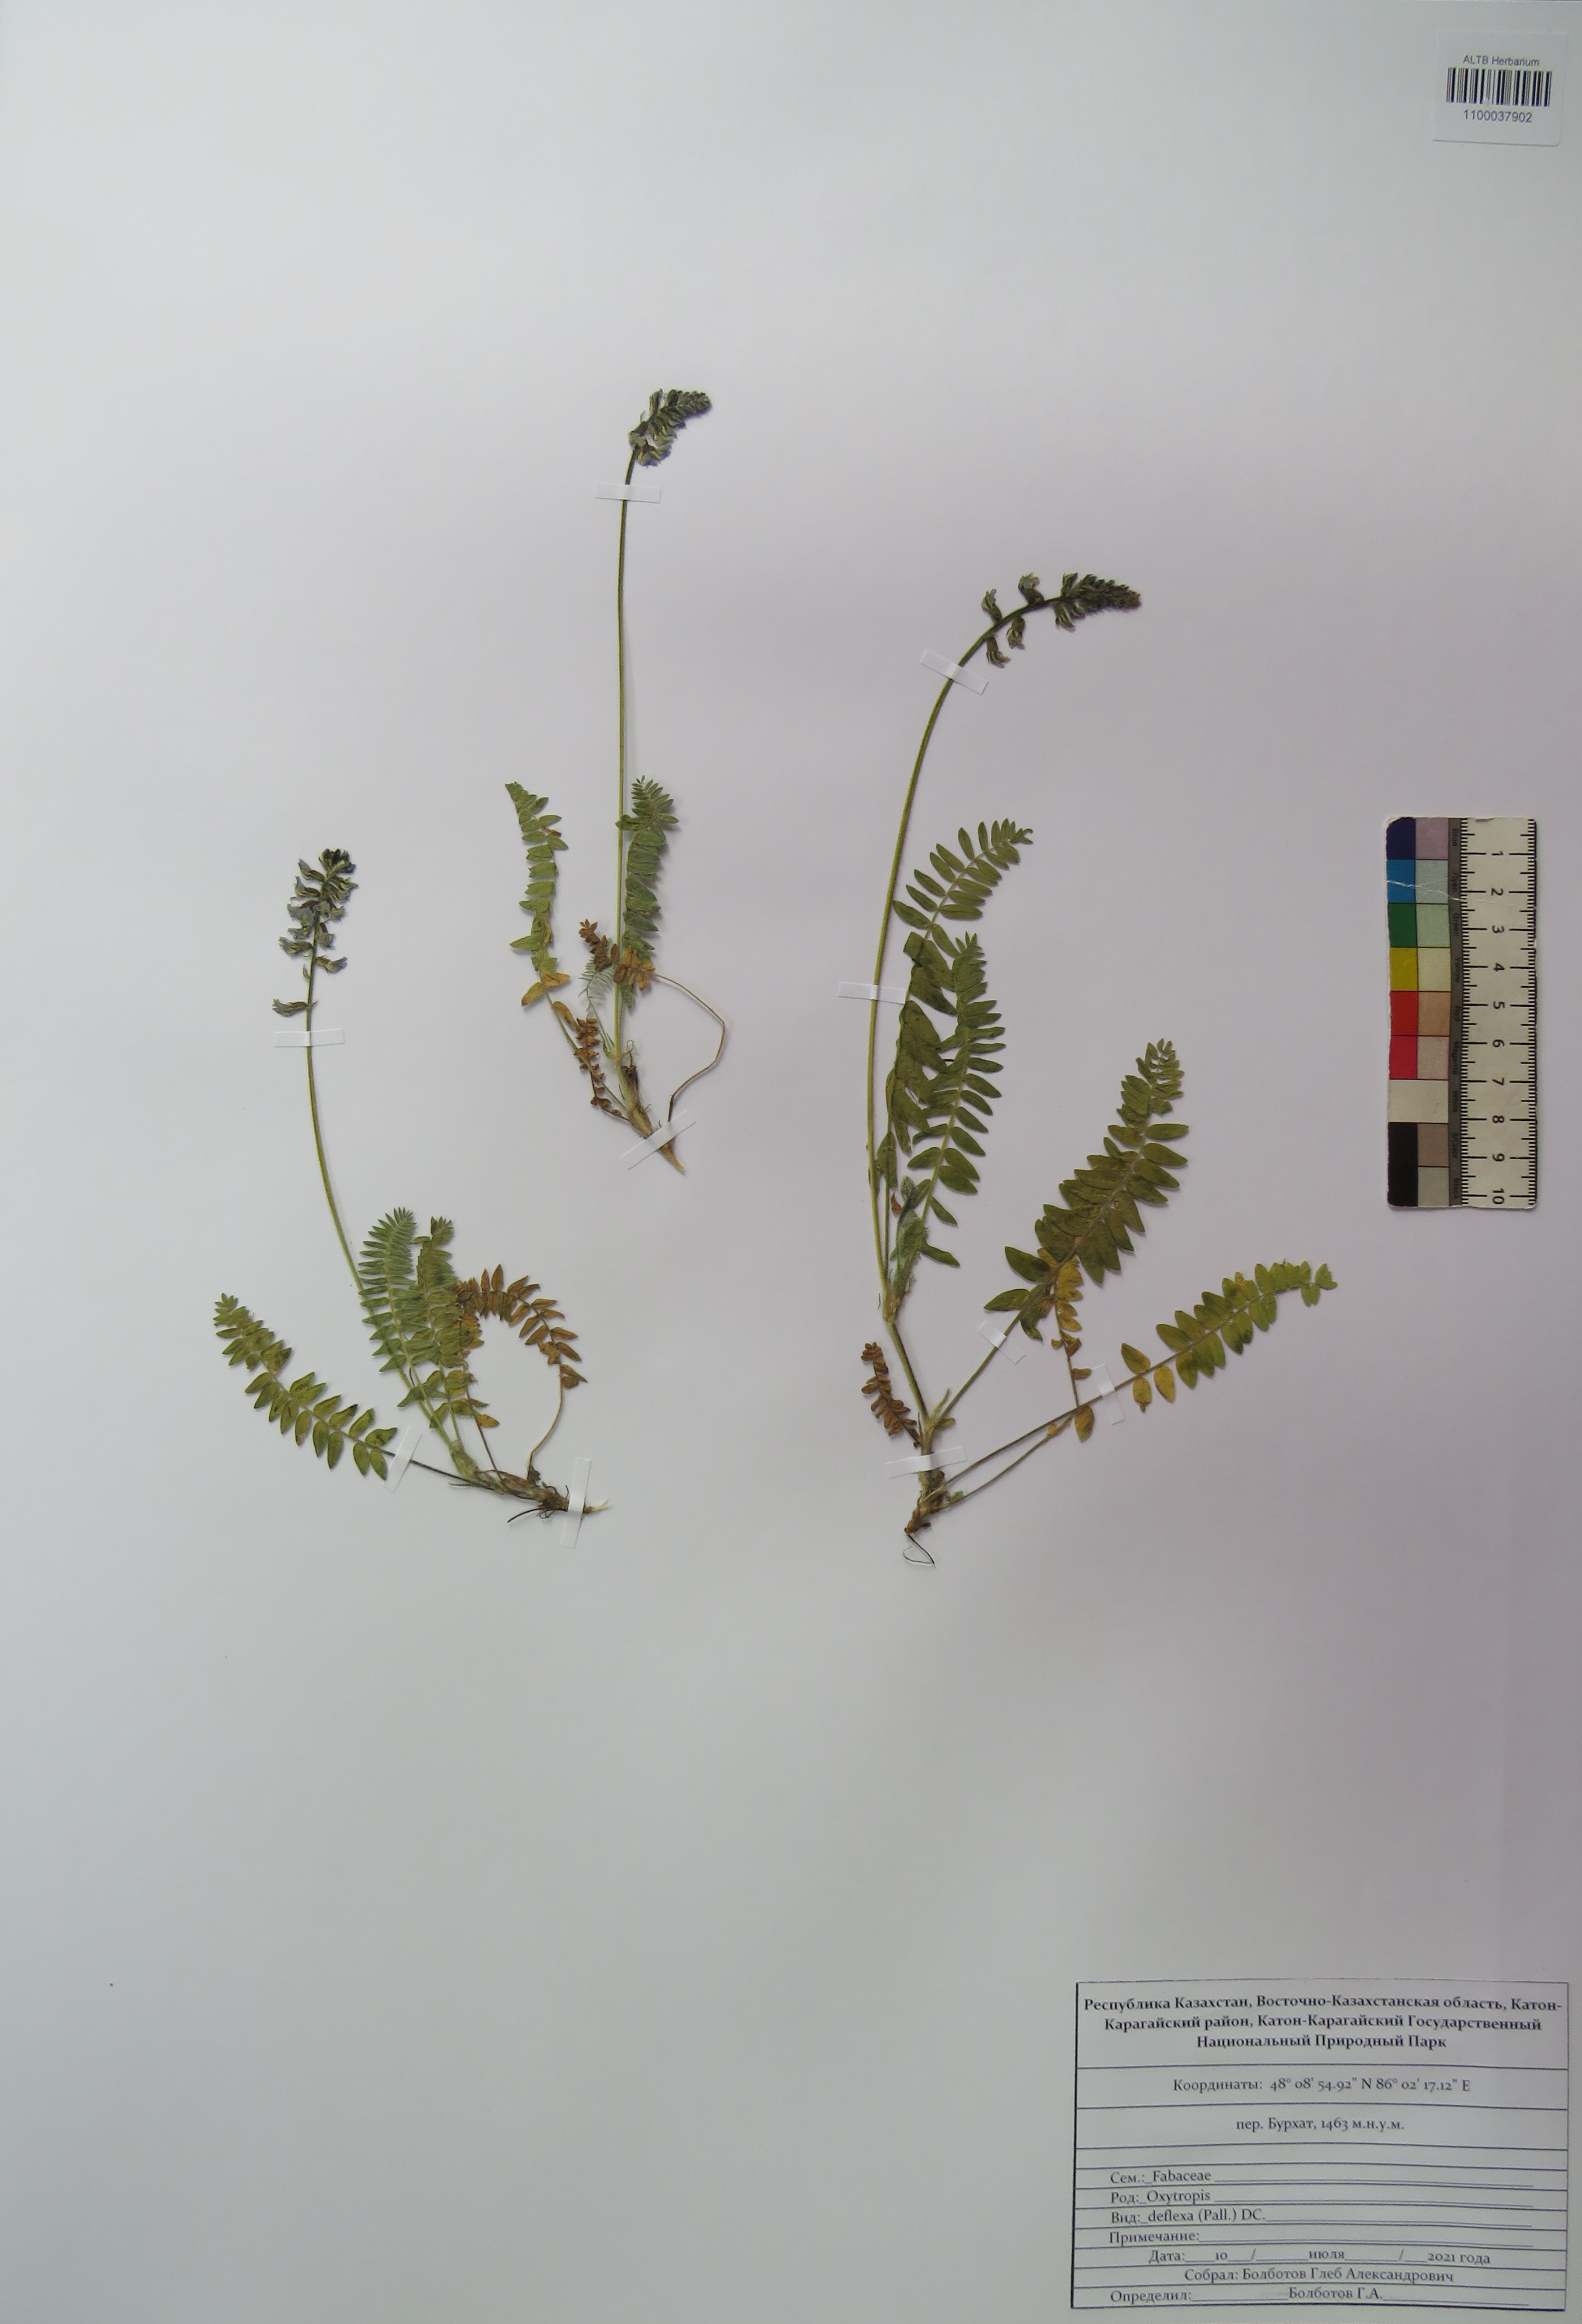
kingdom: Plantae
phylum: Tracheophyta
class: Magnoliopsida
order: Fabales
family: Fabaceae
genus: Oxytropis
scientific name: Oxytropis deflexa
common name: Stemmed oxytrope
